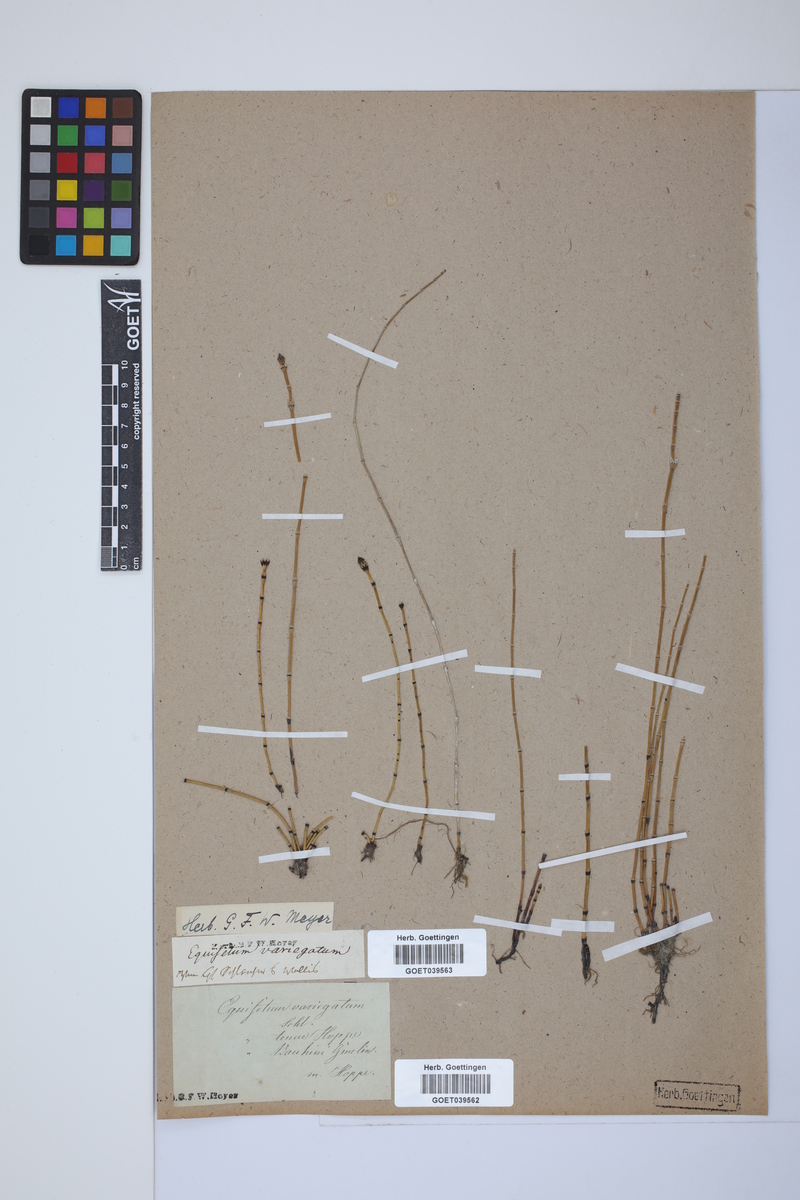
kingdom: Plantae
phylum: Tracheophyta
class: Polypodiopsida
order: Equisetales
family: Equisetaceae
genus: Equisetum
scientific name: Equisetum variegatum
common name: Variegated horsetail
